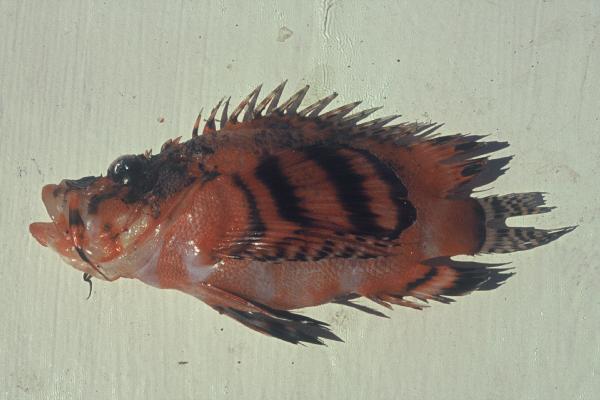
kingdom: Animalia
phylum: Chordata
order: Scorpaeniformes
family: Scorpaenidae
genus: Dendrochirus
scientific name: Dendrochirus biocellatus
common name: Twinspot lionfish
